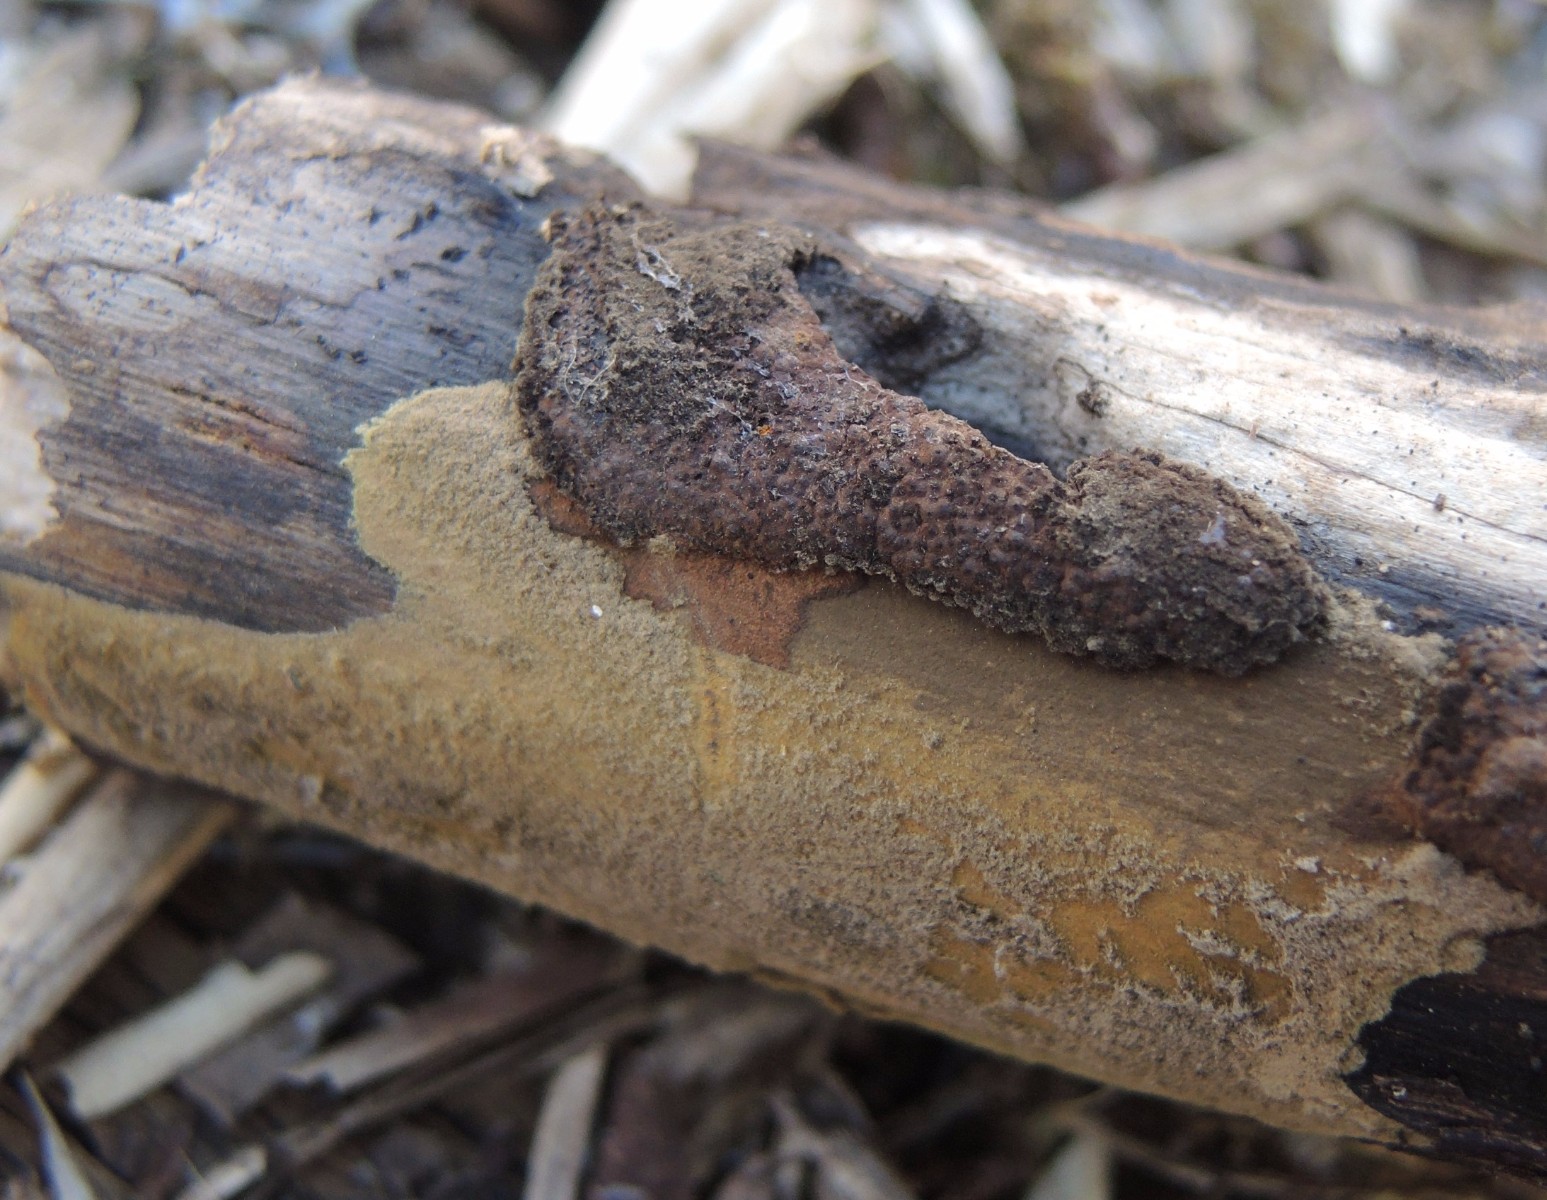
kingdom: Fungi
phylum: Ascomycota
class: Sordariomycetes
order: Xylariales
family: Hypoxylaceae
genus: Hypoxylon
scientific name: Hypoxylon rubiginosum
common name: rustfarvet kulbær
